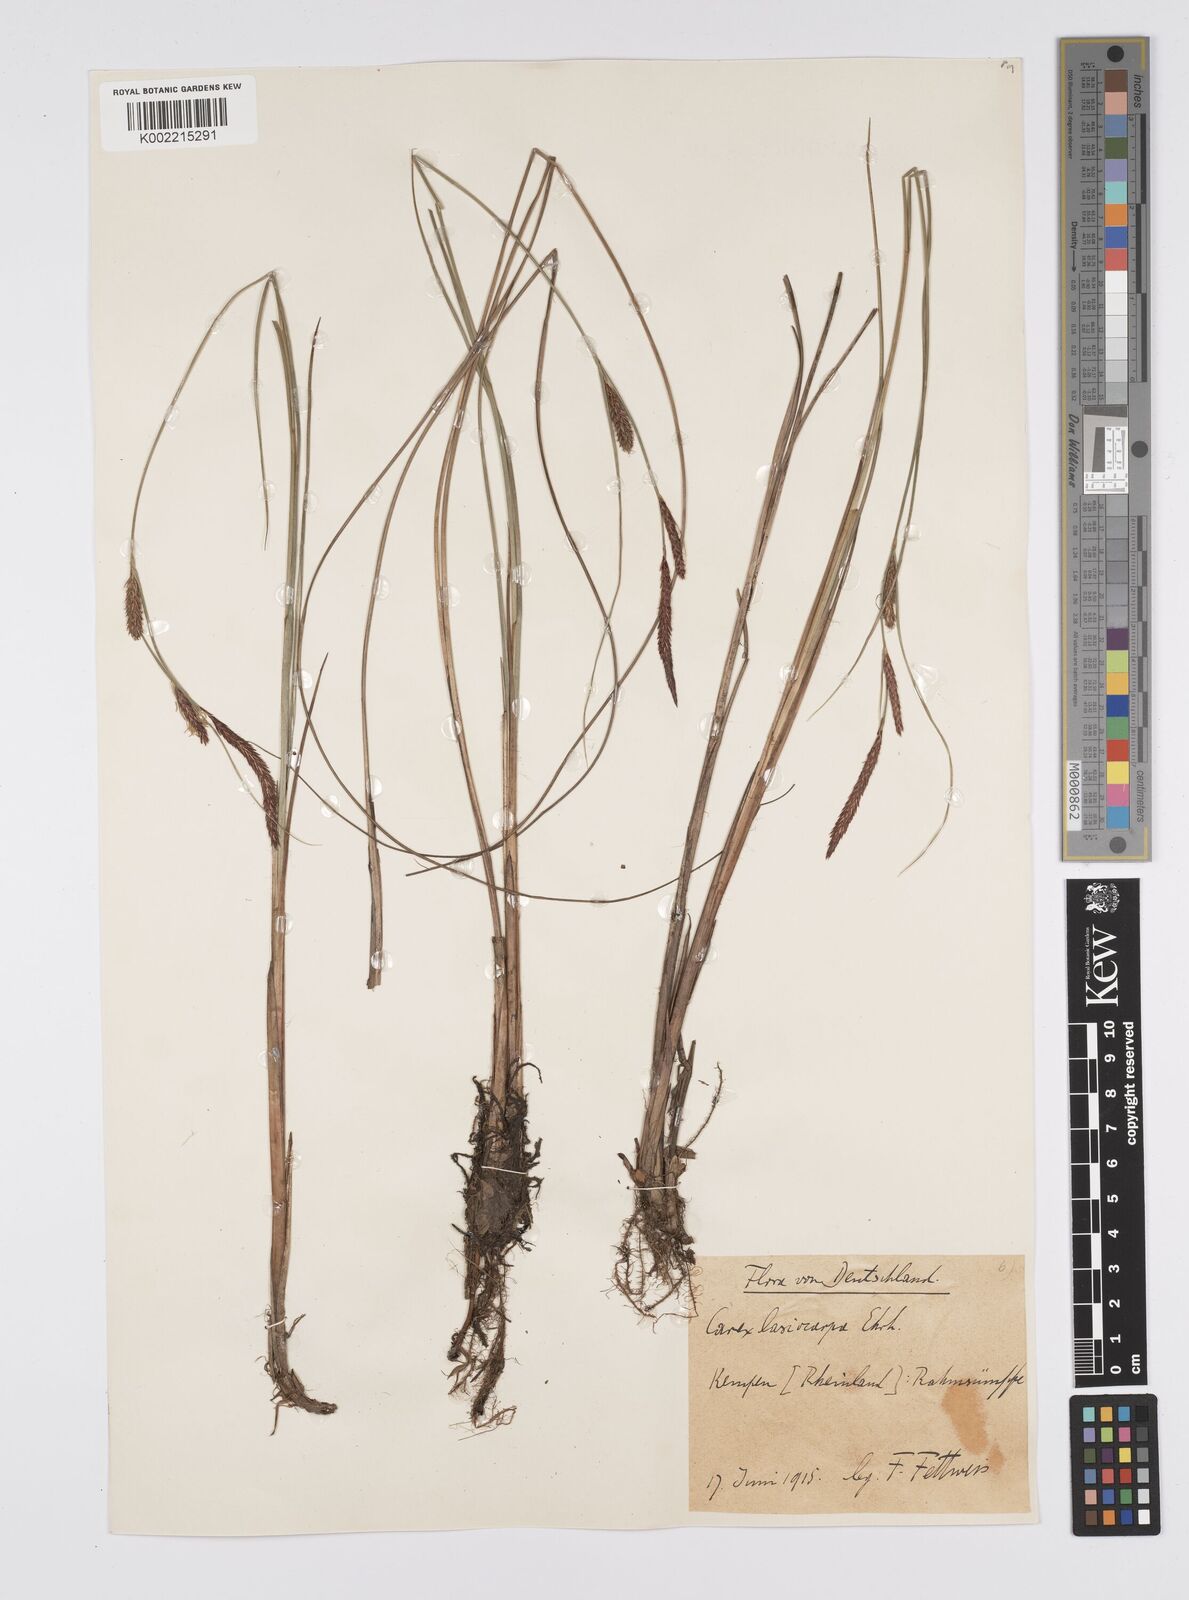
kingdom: Plantae
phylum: Tracheophyta
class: Liliopsida
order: Poales
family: Cyperaceae
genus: Carex
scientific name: Carex lasiocarpa
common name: Slender sedge
